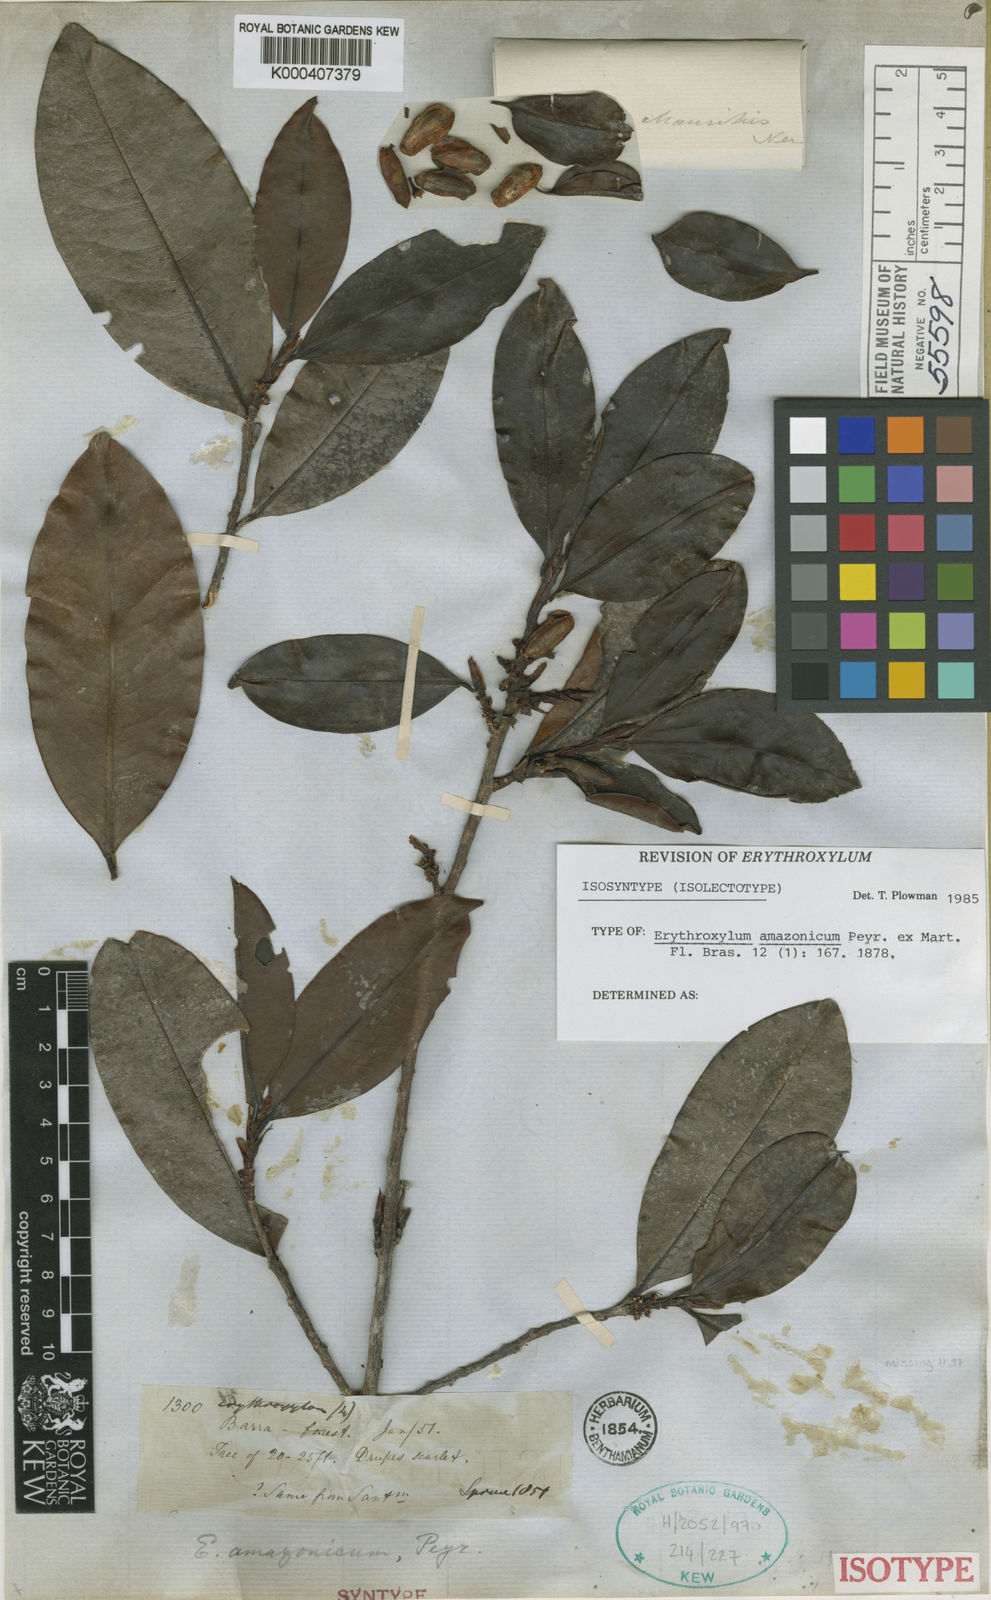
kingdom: Plantae
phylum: Tracheophyta
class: Magnoliopsida
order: Malpighiales
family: Erythroxylaceae
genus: Erythroxylum
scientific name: Erythroxylum amazonicum
